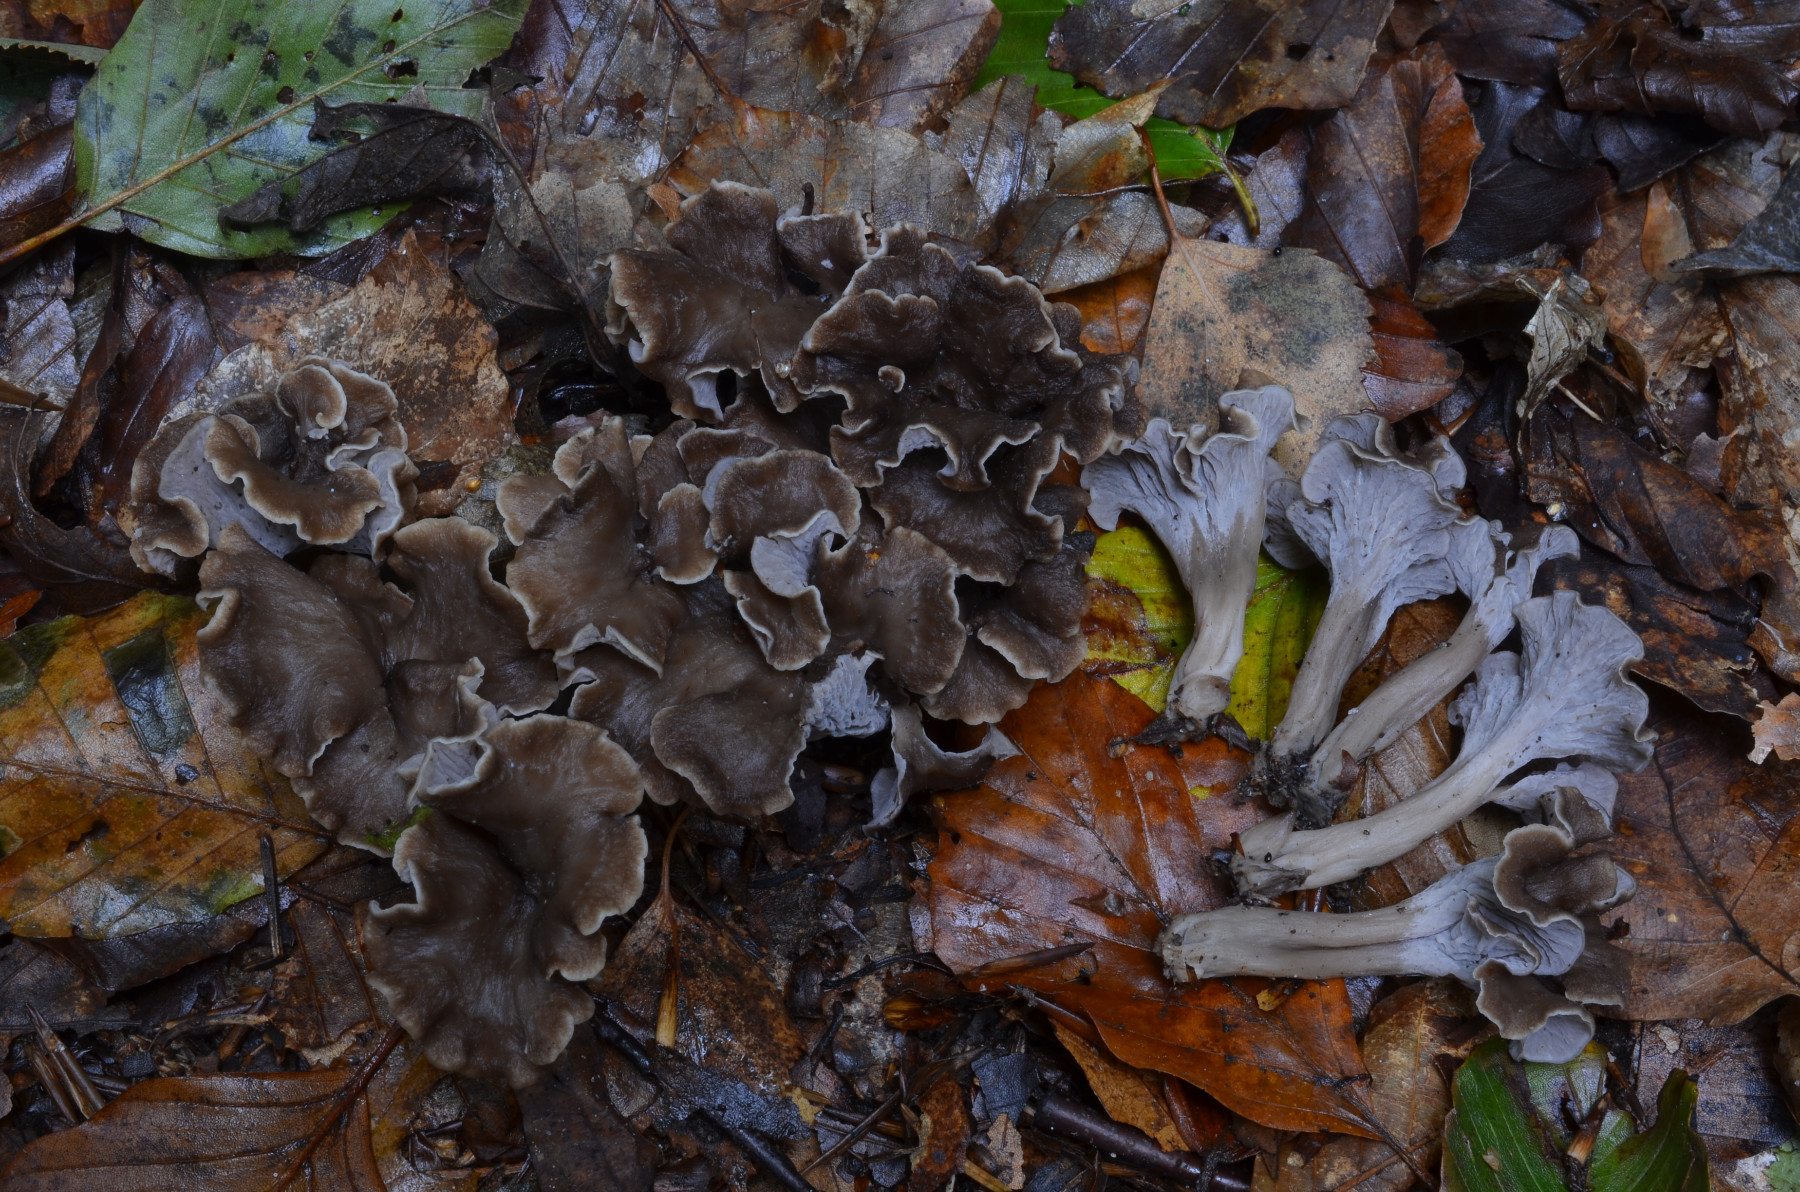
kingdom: Fungi
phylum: Basidiomycota
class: Agaricomycetes
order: Cantharellales
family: Hydnaceae
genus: Craterellus
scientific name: Craterellus undulatus
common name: liden kantarel
